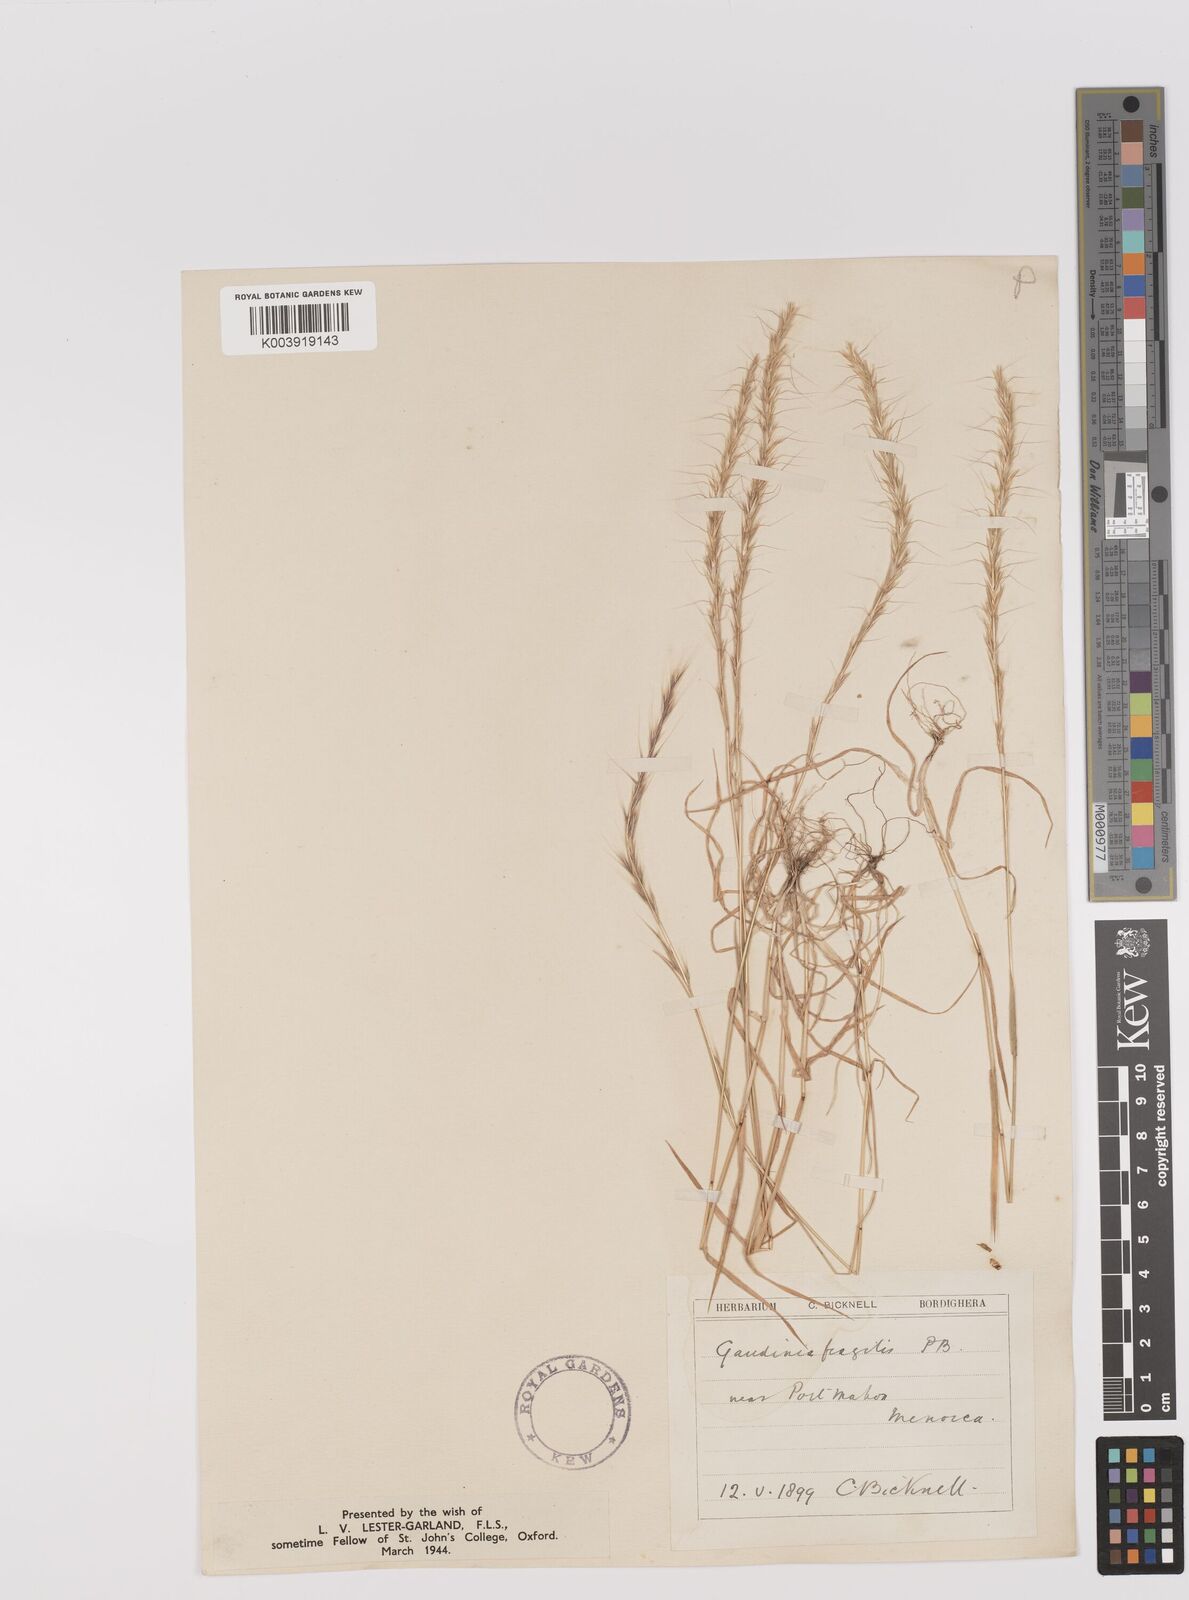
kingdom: Plantae
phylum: Tracheophyta
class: Liliopsida
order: Poales
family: Poaceae
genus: Gaudinia
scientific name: Gaudinia fragilis
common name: French oat-grass
